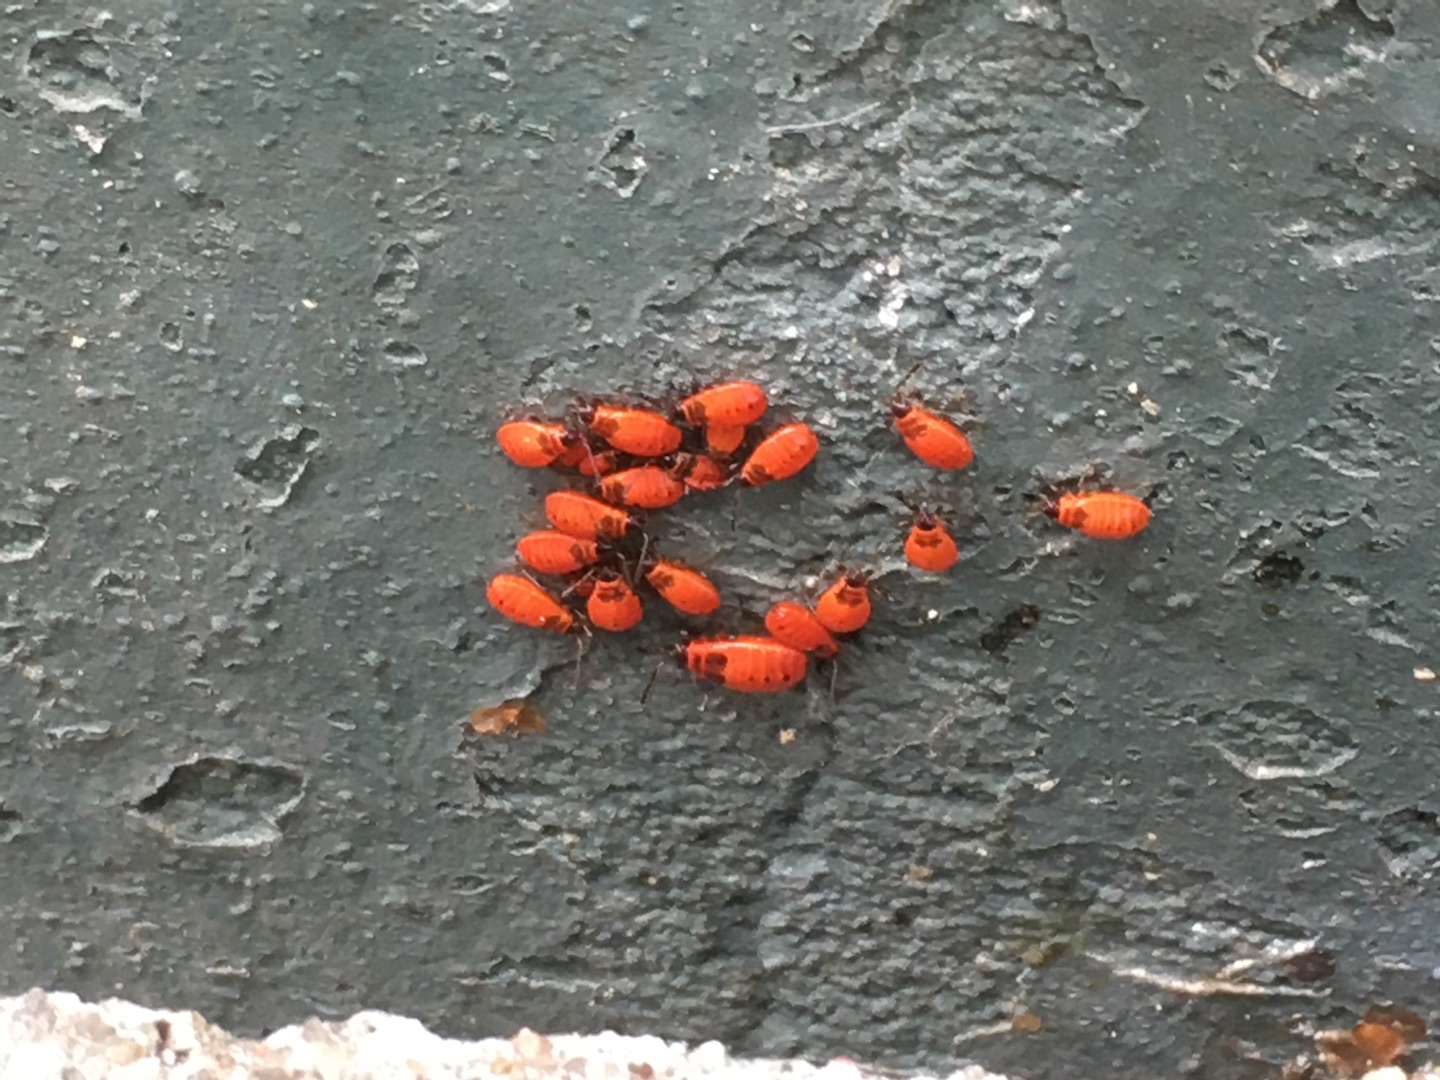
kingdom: Animalia
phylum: Arthropoda
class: Insecta
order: Hemiptera
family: Pyrrhocoridae
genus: Pyrrhocoris
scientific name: Pyrrhocoris apterus
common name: Ildtæge
